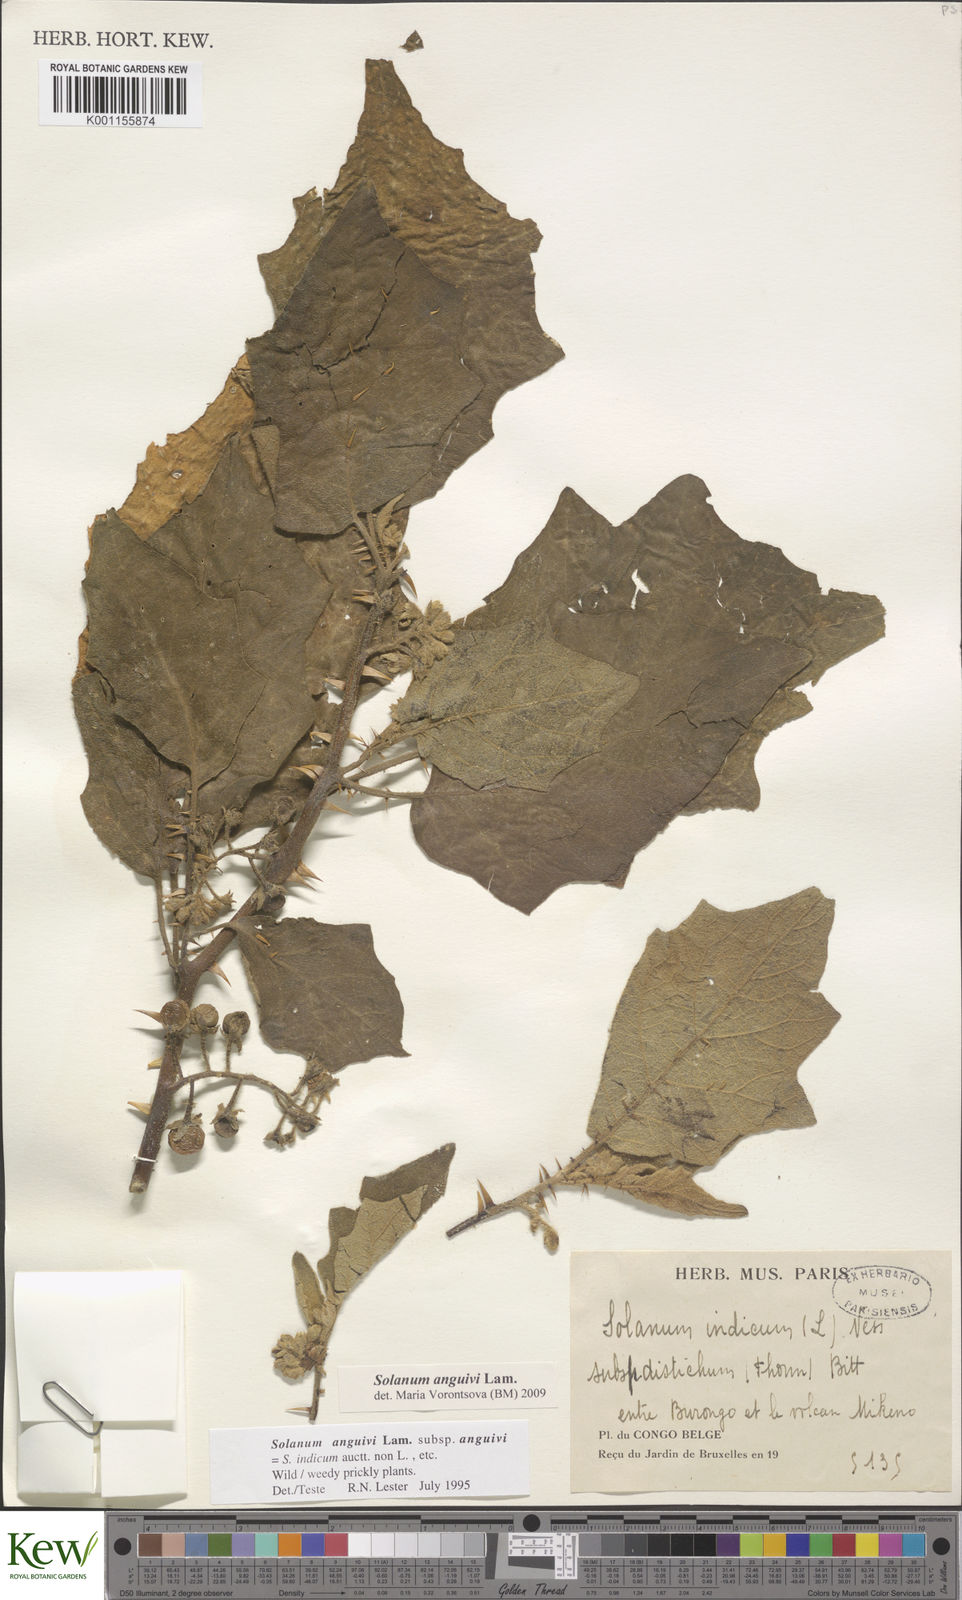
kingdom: Plantae
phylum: Tracheophyta
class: Magnoliopsida
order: Solanales
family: Solanaceae
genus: Solanum
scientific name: Solanum anguivi
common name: Forest bitterberry
